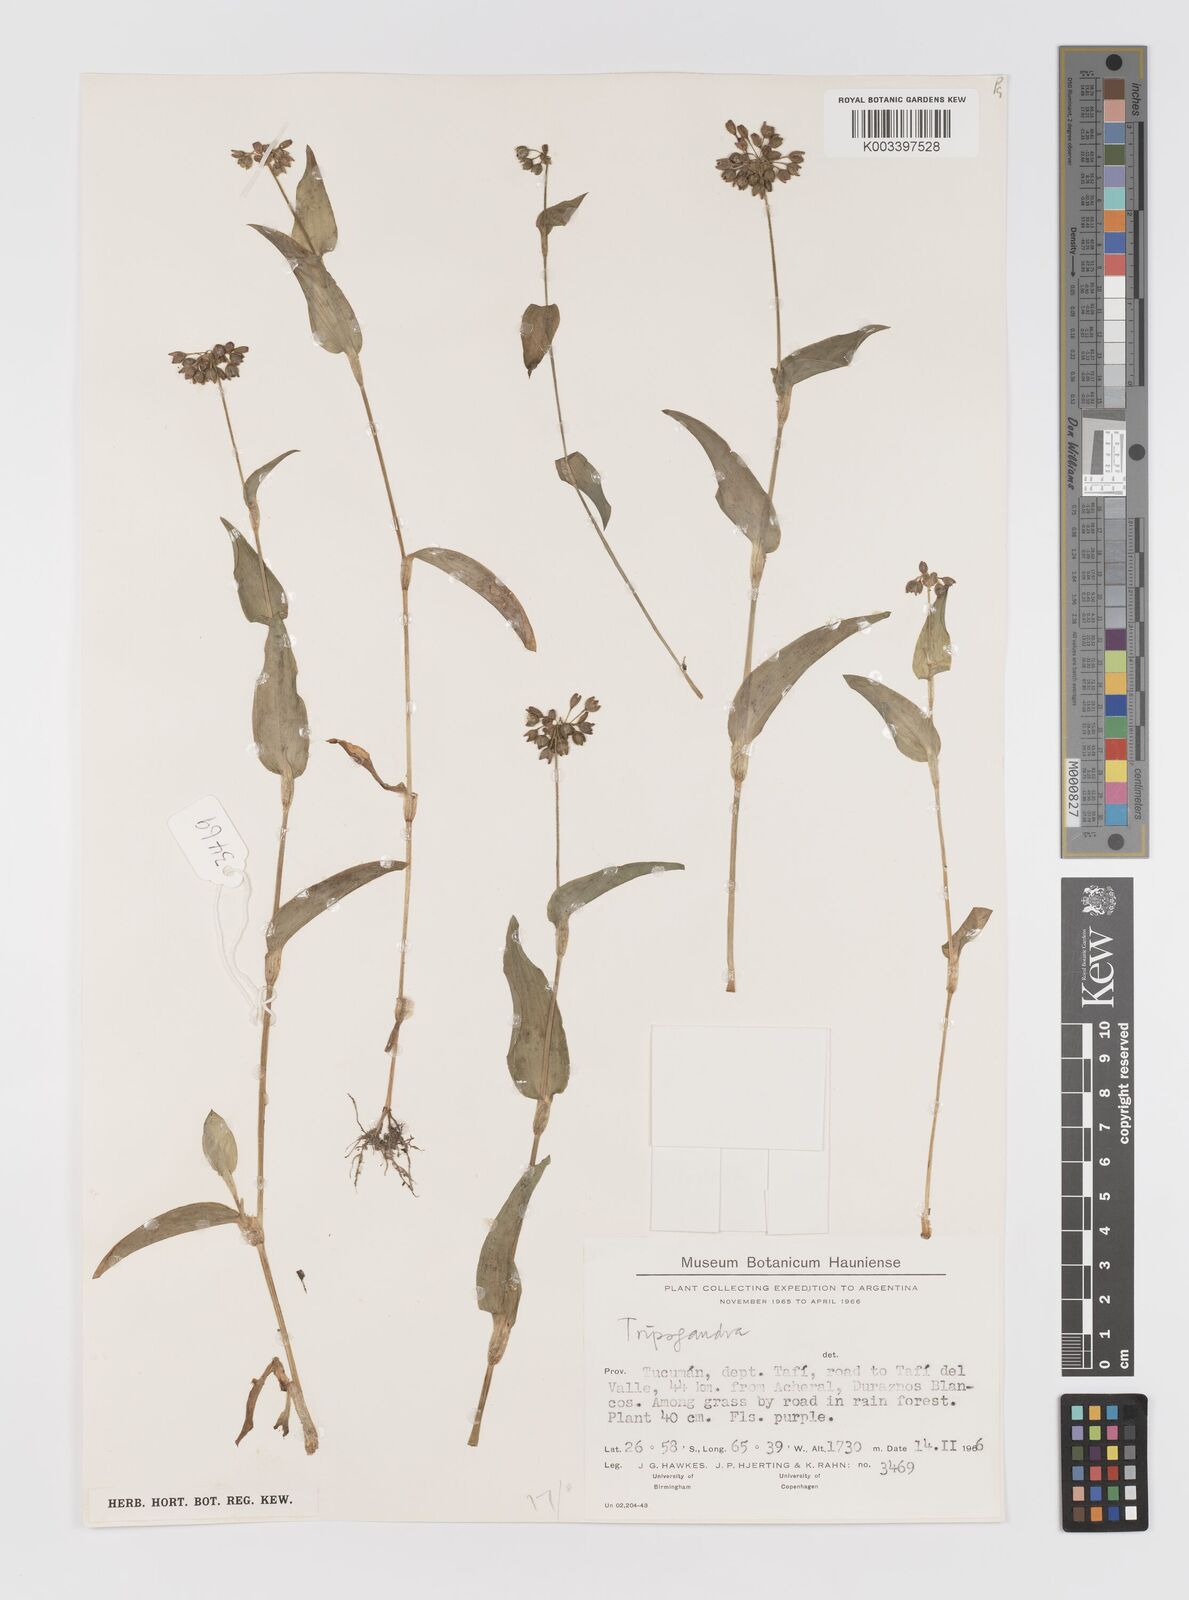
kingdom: Plantae
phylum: Tracheophyta
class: Liliopsida
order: Commelinales
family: Commelinaceae
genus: Callisia
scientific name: Callisia purpurascens
